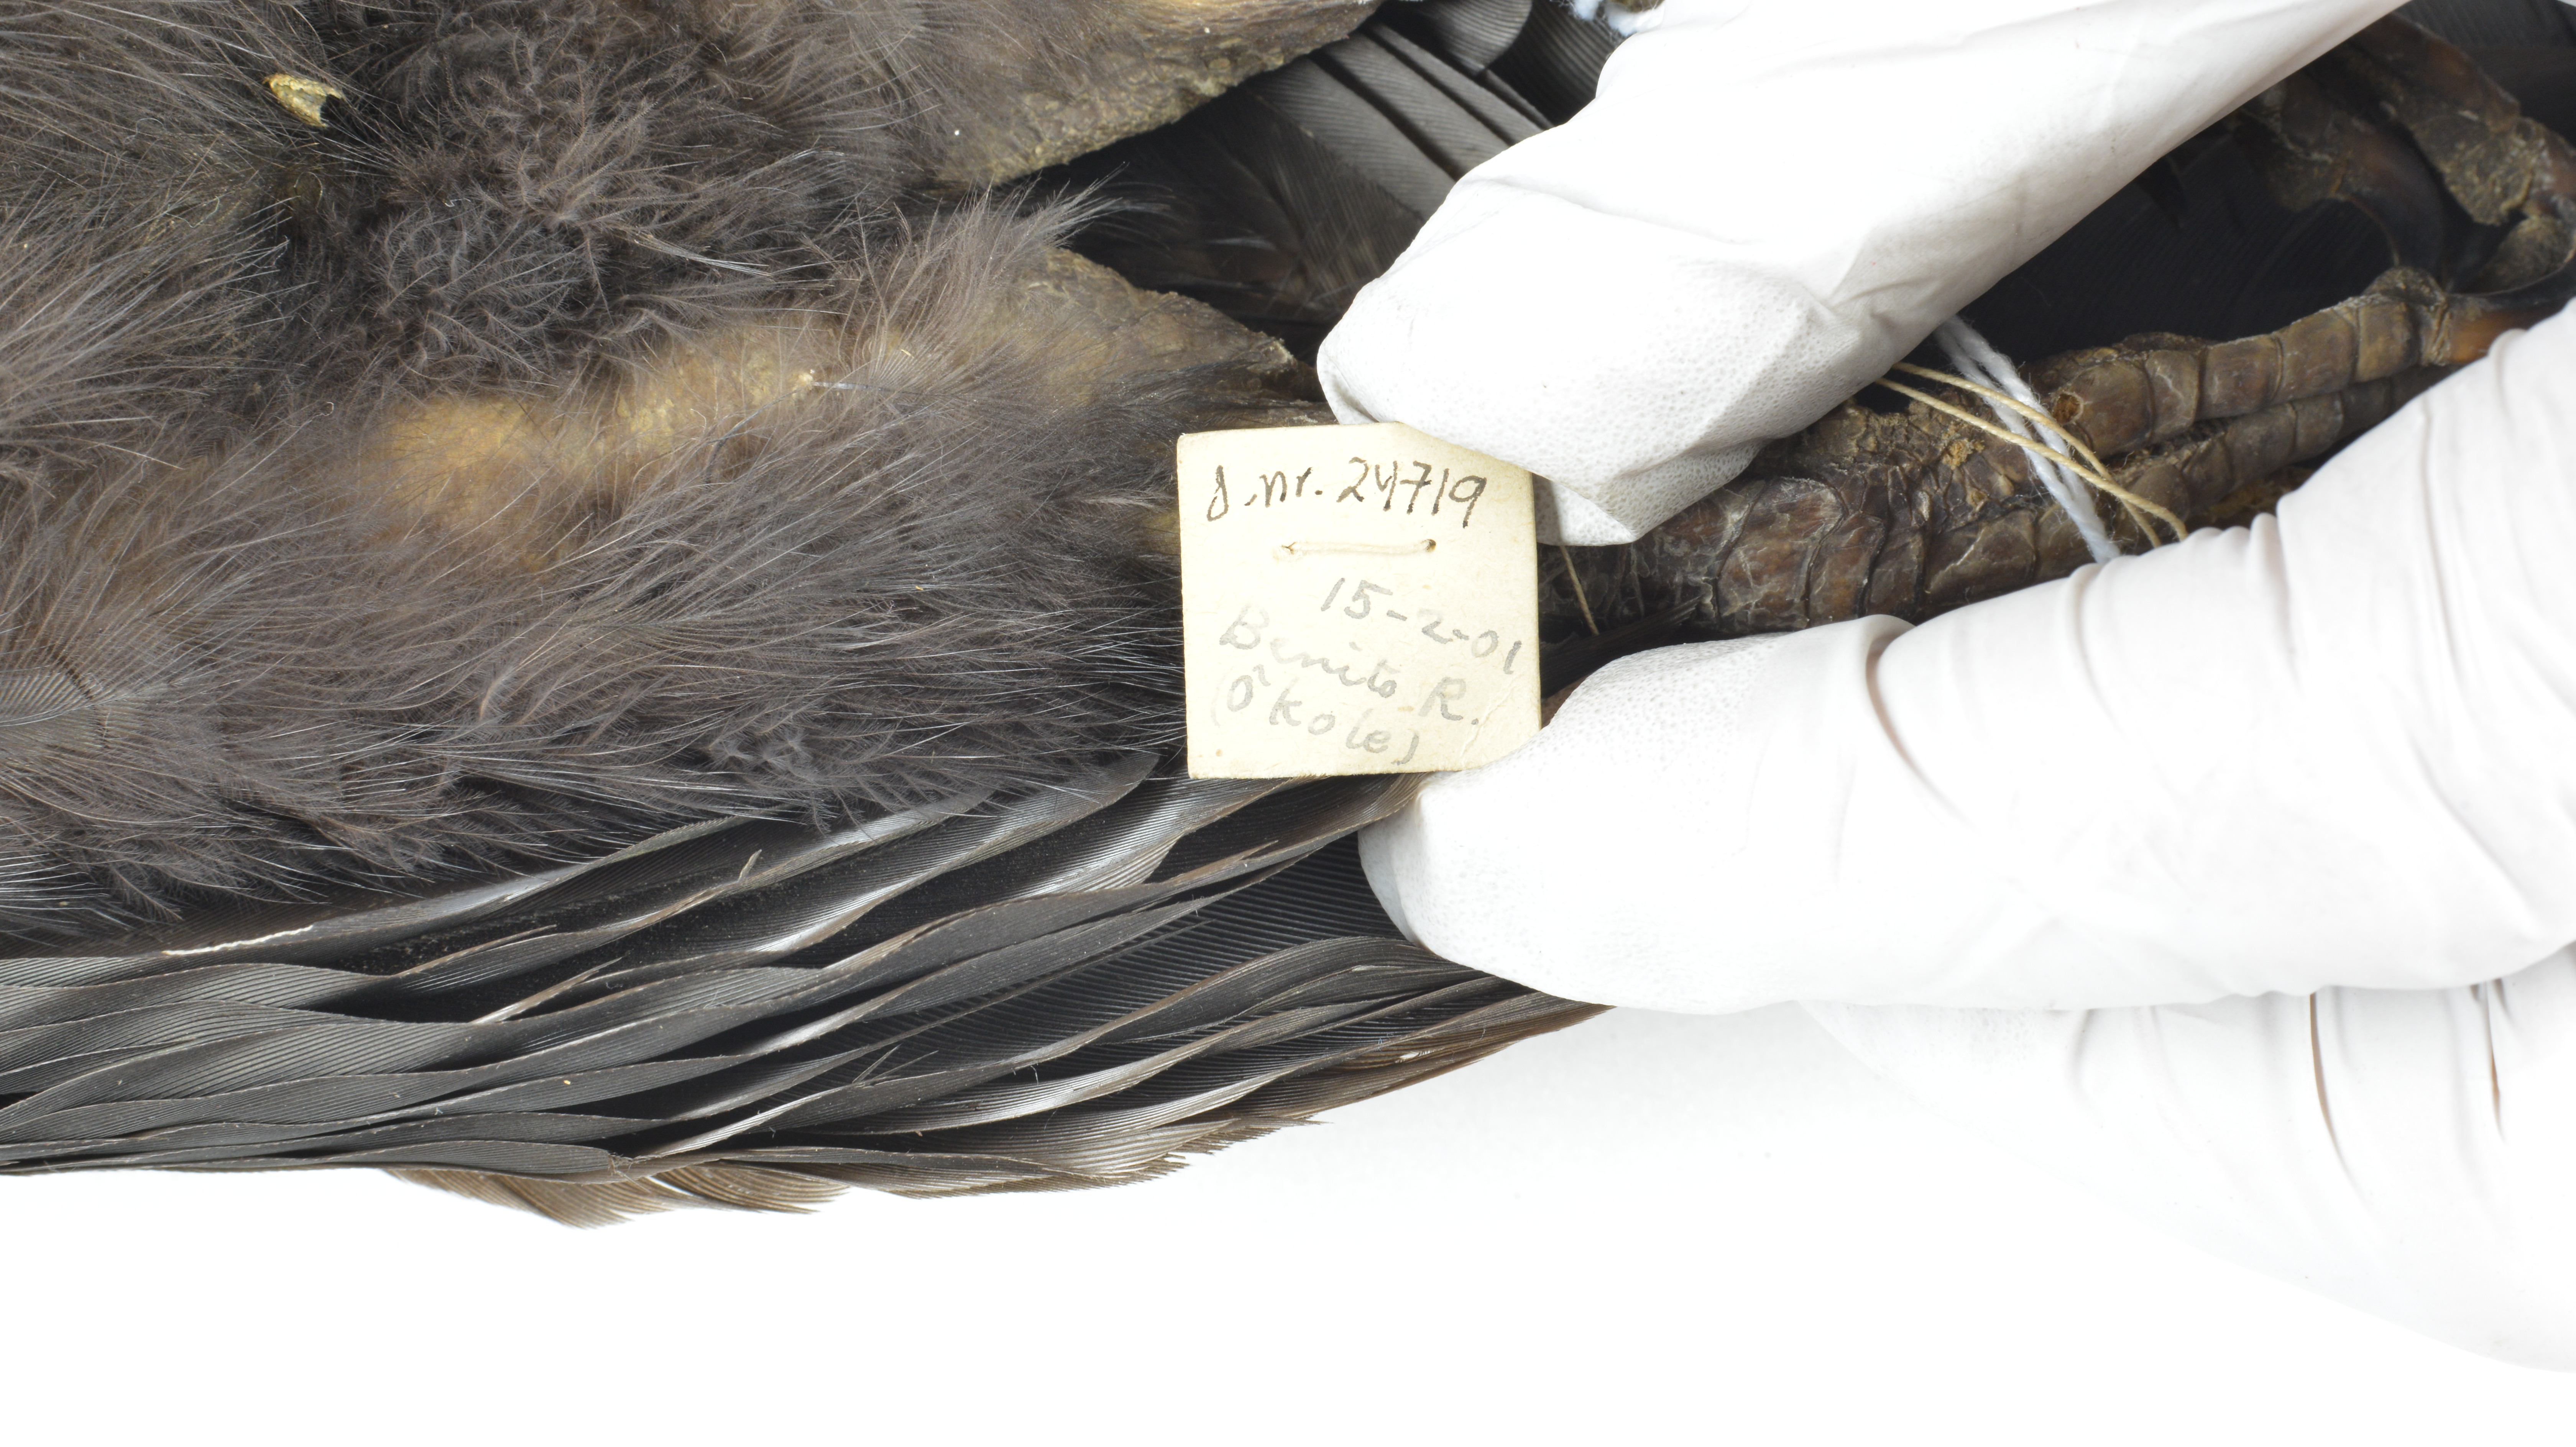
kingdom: Animalia
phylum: Chordata
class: Aves
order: Bucerotiformes
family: Bucerotidae
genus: Ceratogymna
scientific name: Ceratogymna atrata
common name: Black-casqued hornbill
